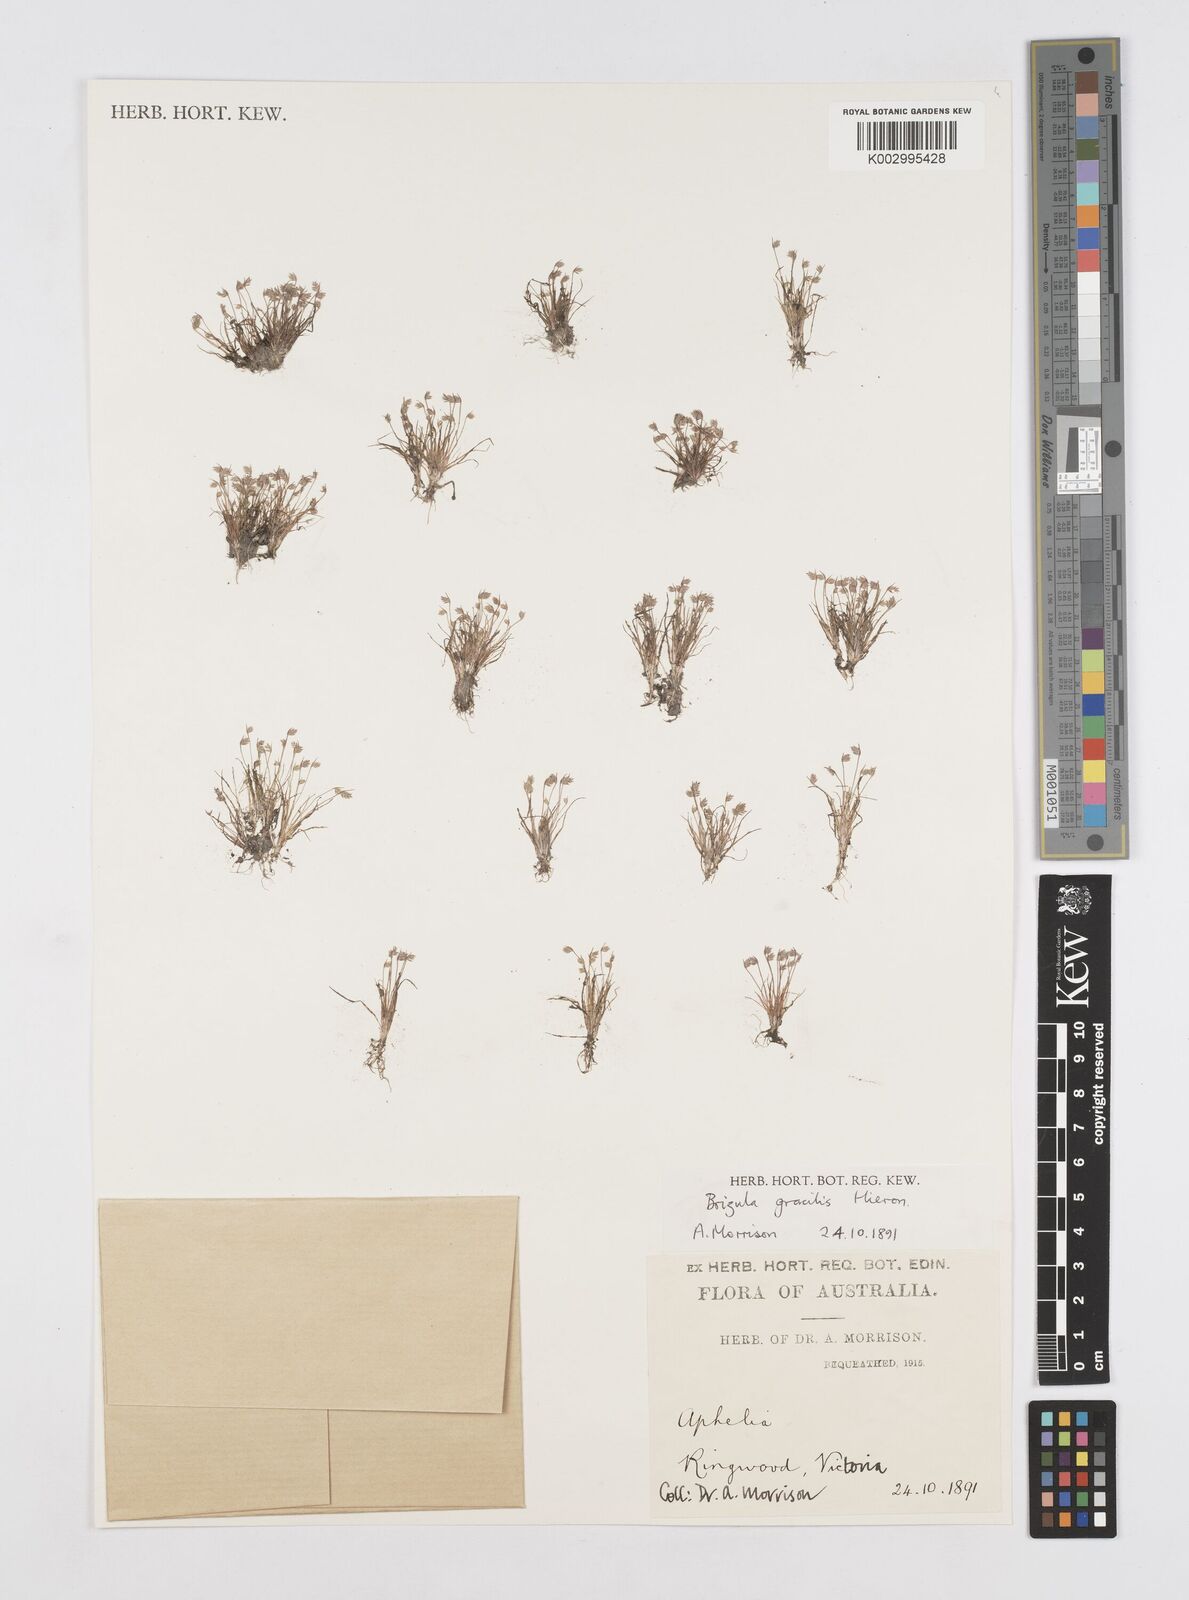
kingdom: Plantae
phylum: Tracheophyta
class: Liliopsida
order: Poales
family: Restionaceae
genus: Aphelia
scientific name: Aphelia gracilis
